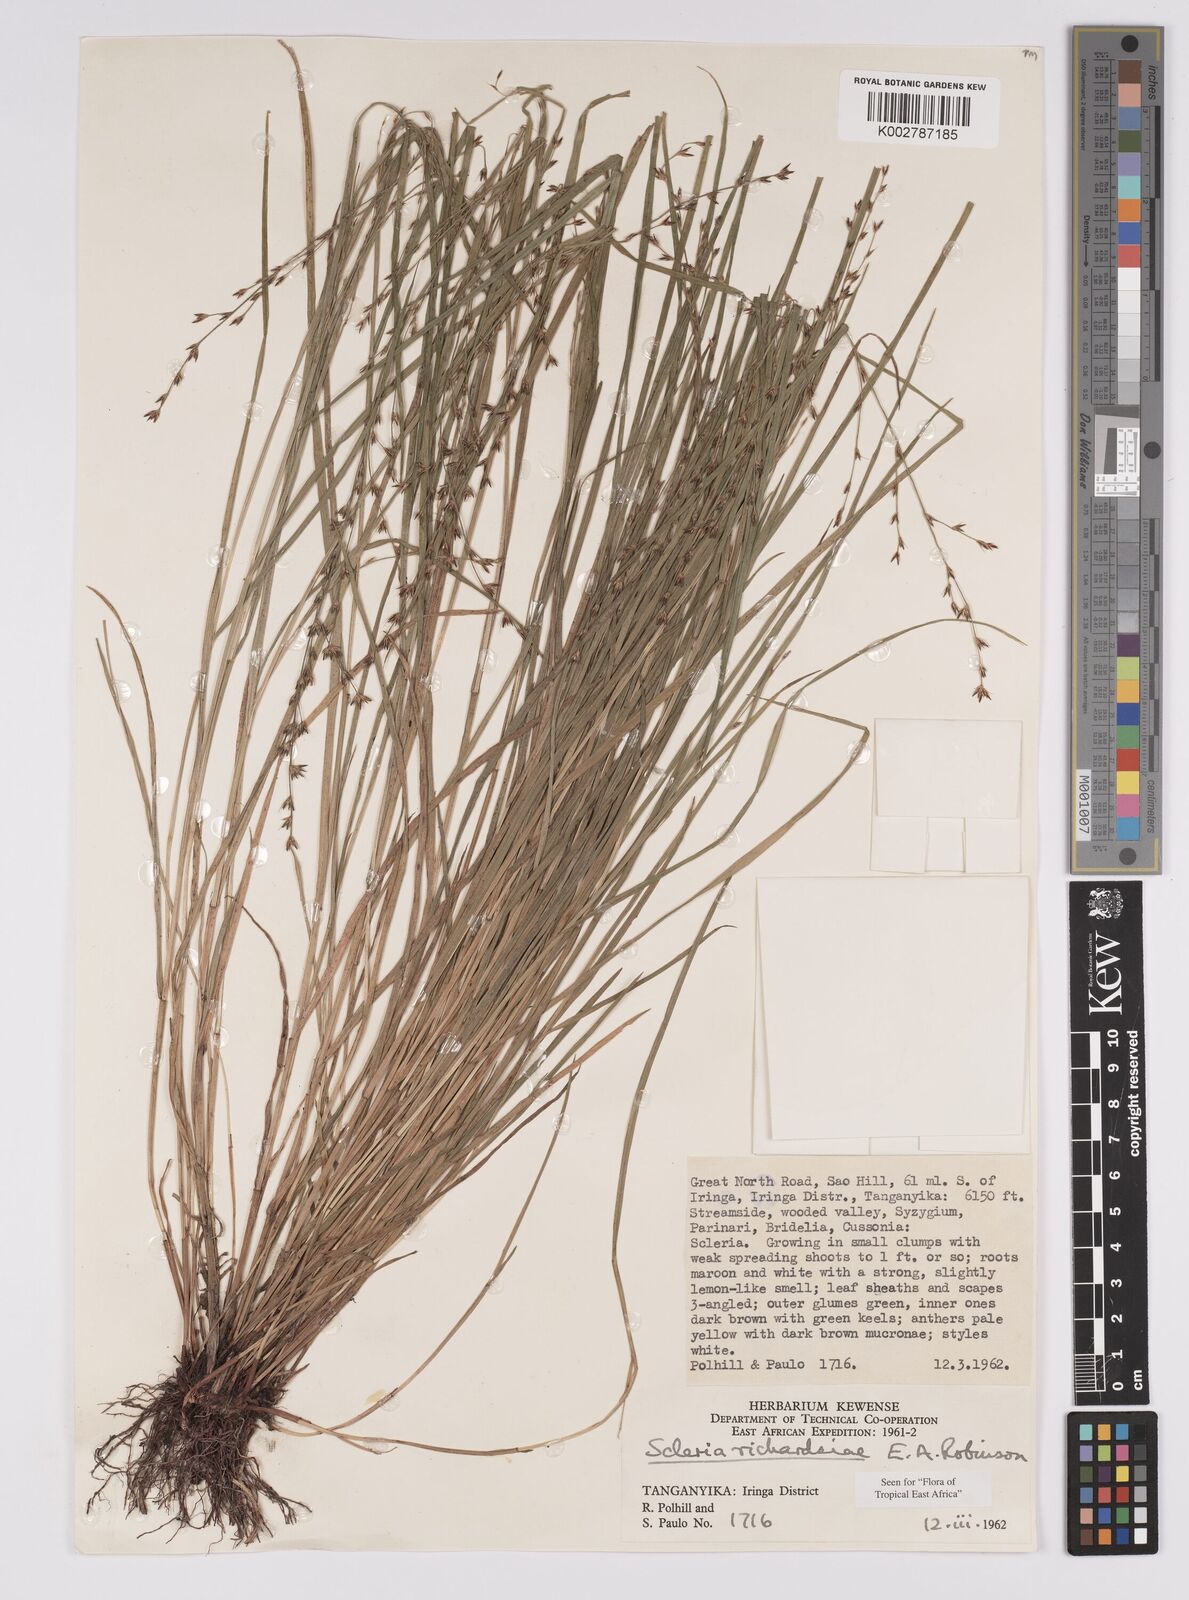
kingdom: Plantae
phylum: Tracheophyta
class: Liliopsida
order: Poales
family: Cyperaceae
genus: Scleria
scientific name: Scleria richardsiae
